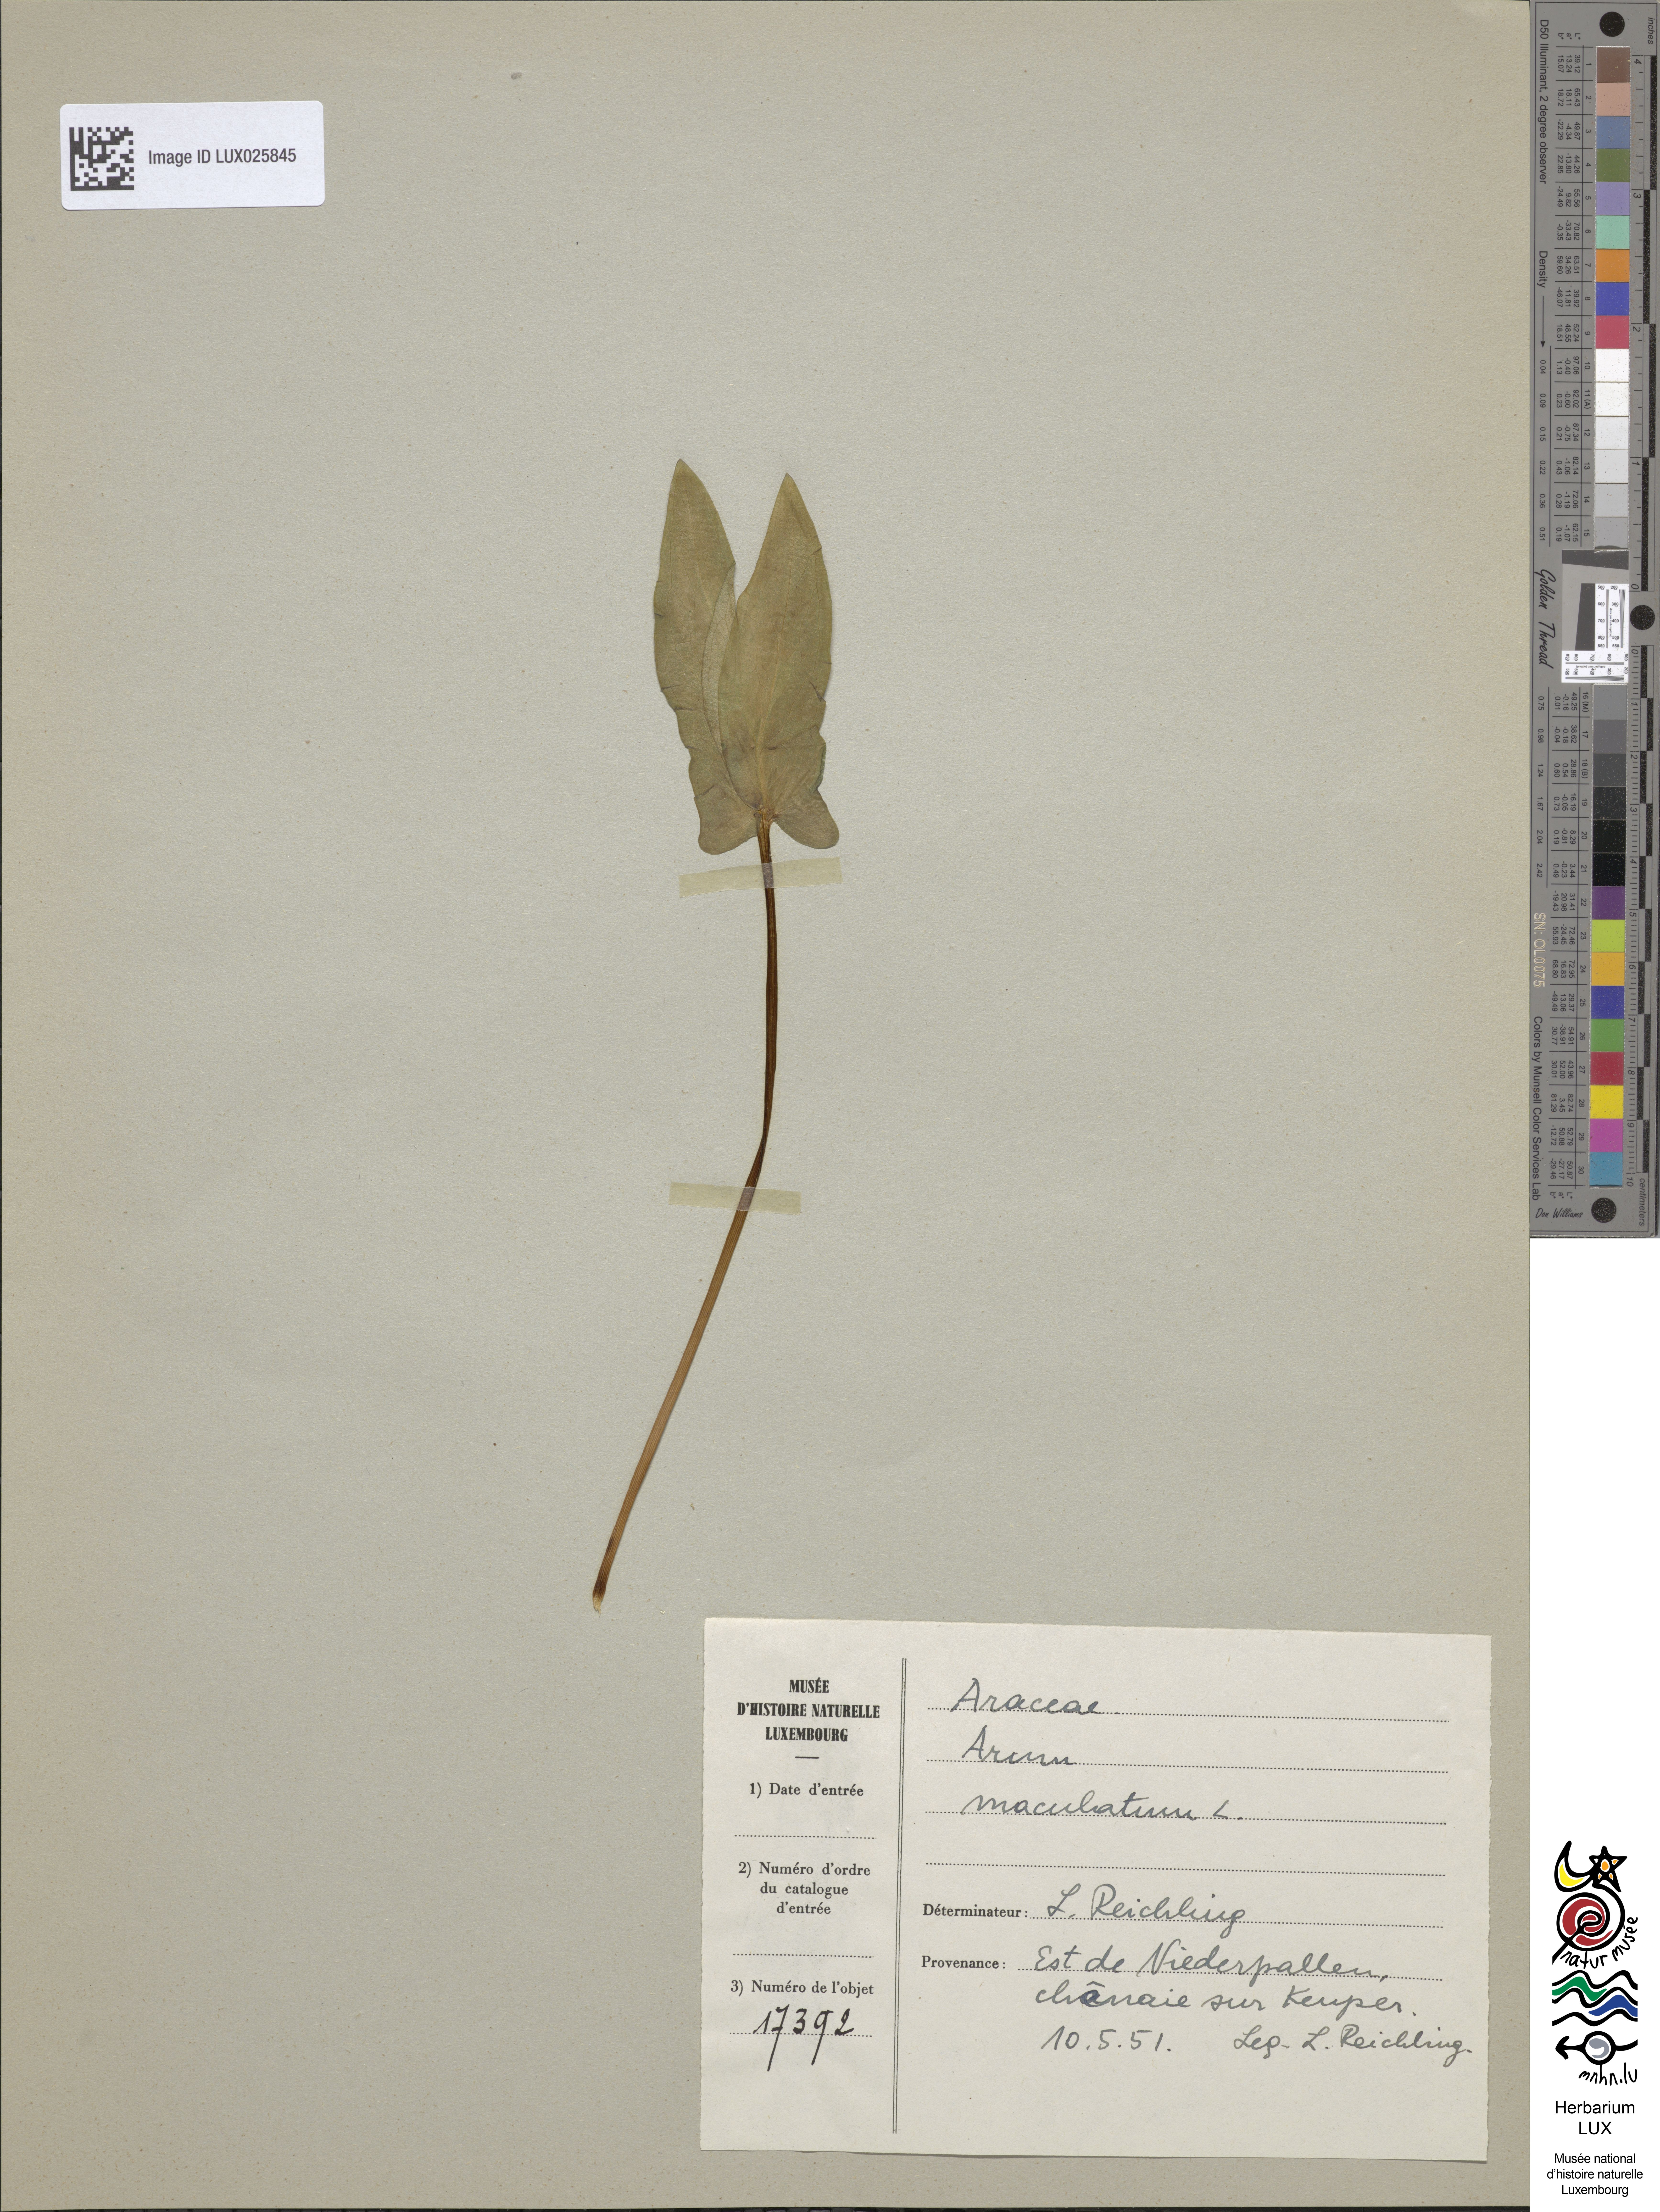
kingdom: Plantae
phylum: Tracheophyta
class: Liliopsida
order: Alismatales
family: Araceae
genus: Arum
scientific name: Arum maculatum
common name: Lords-and-ladies
